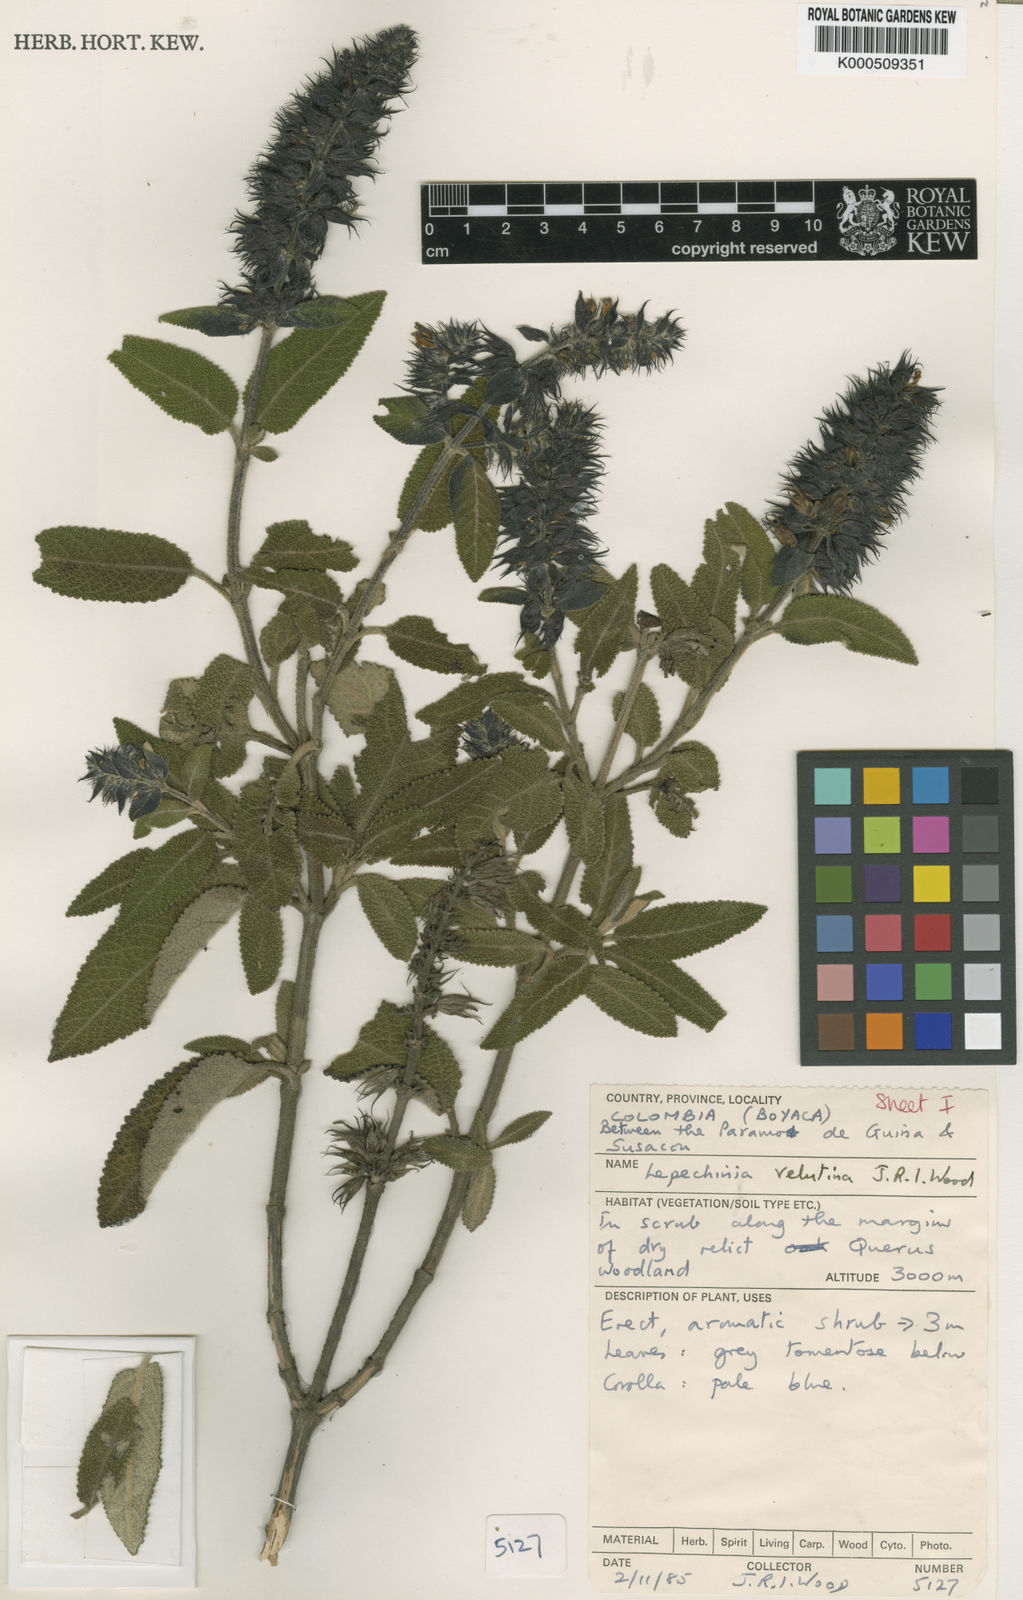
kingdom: Plantae
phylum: Tracheophyta
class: Magnoliopsida
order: Lamiales
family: Lamiaceae
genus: Lepechinia
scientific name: Lepechinia velutina
